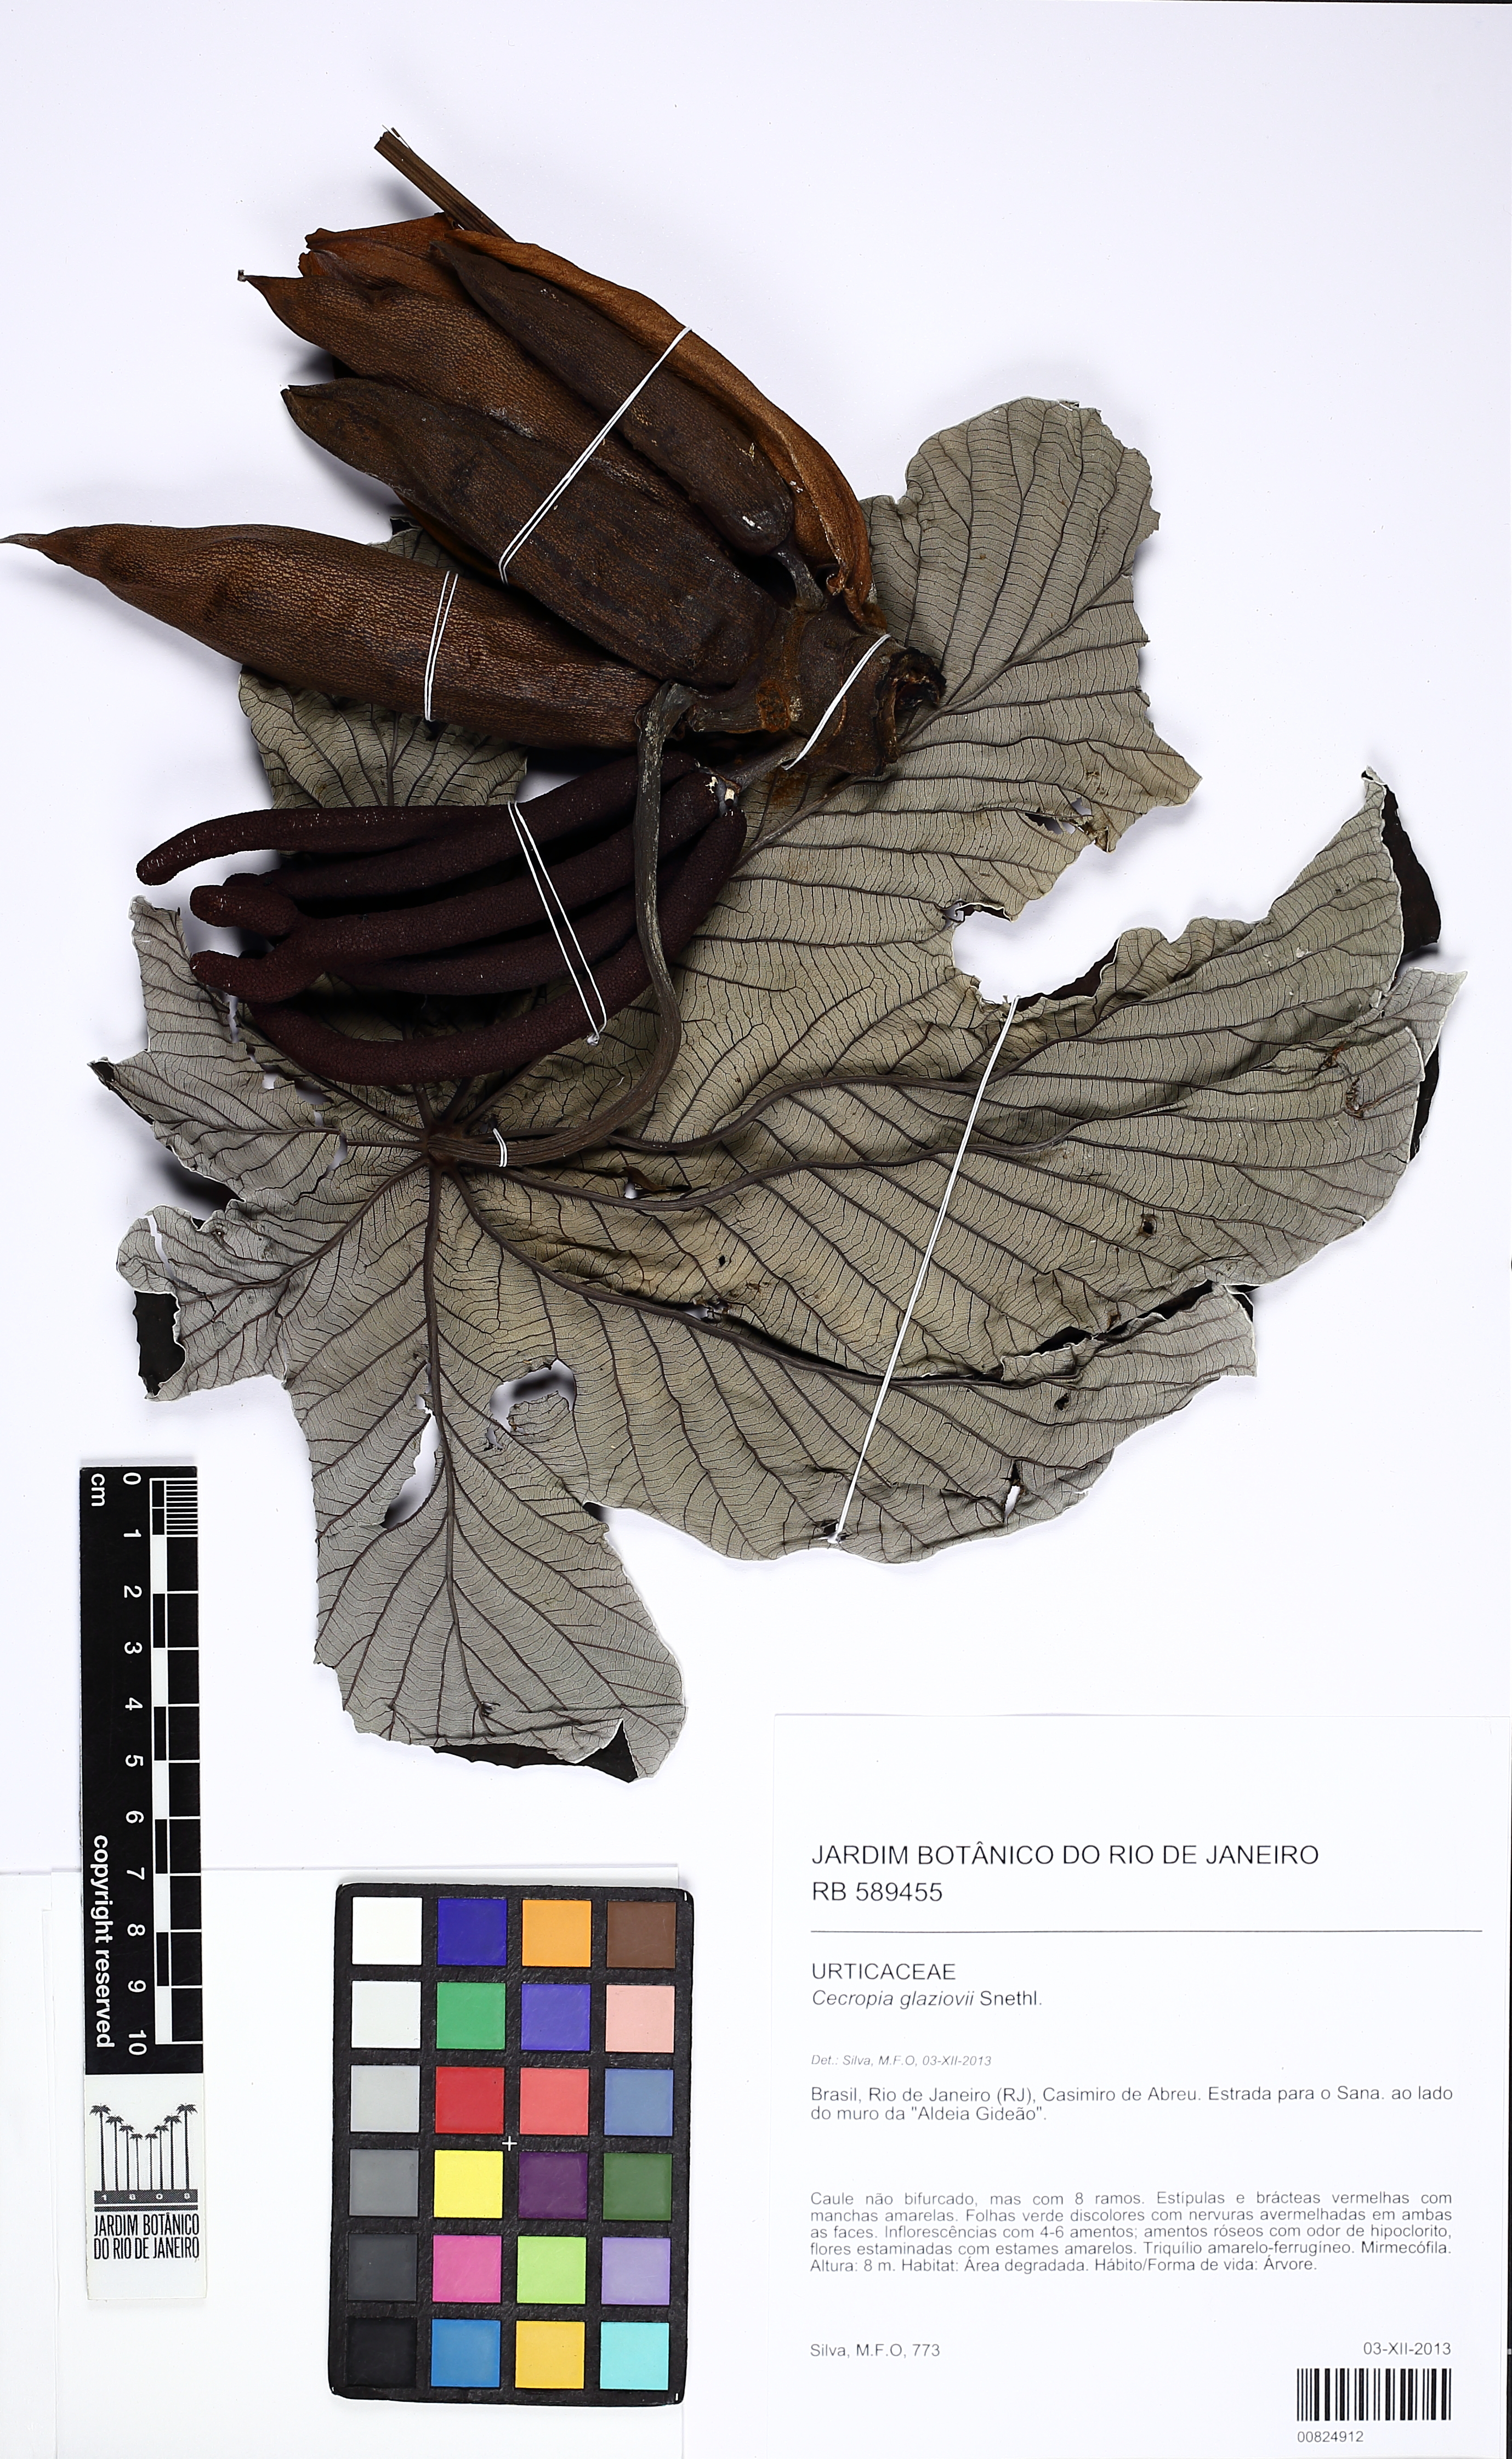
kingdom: Plantae
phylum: Tracheophyta
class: Magnoliopsida
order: Rosales
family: Urticaceae
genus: Cecropia
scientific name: Cecropia glaziovii
